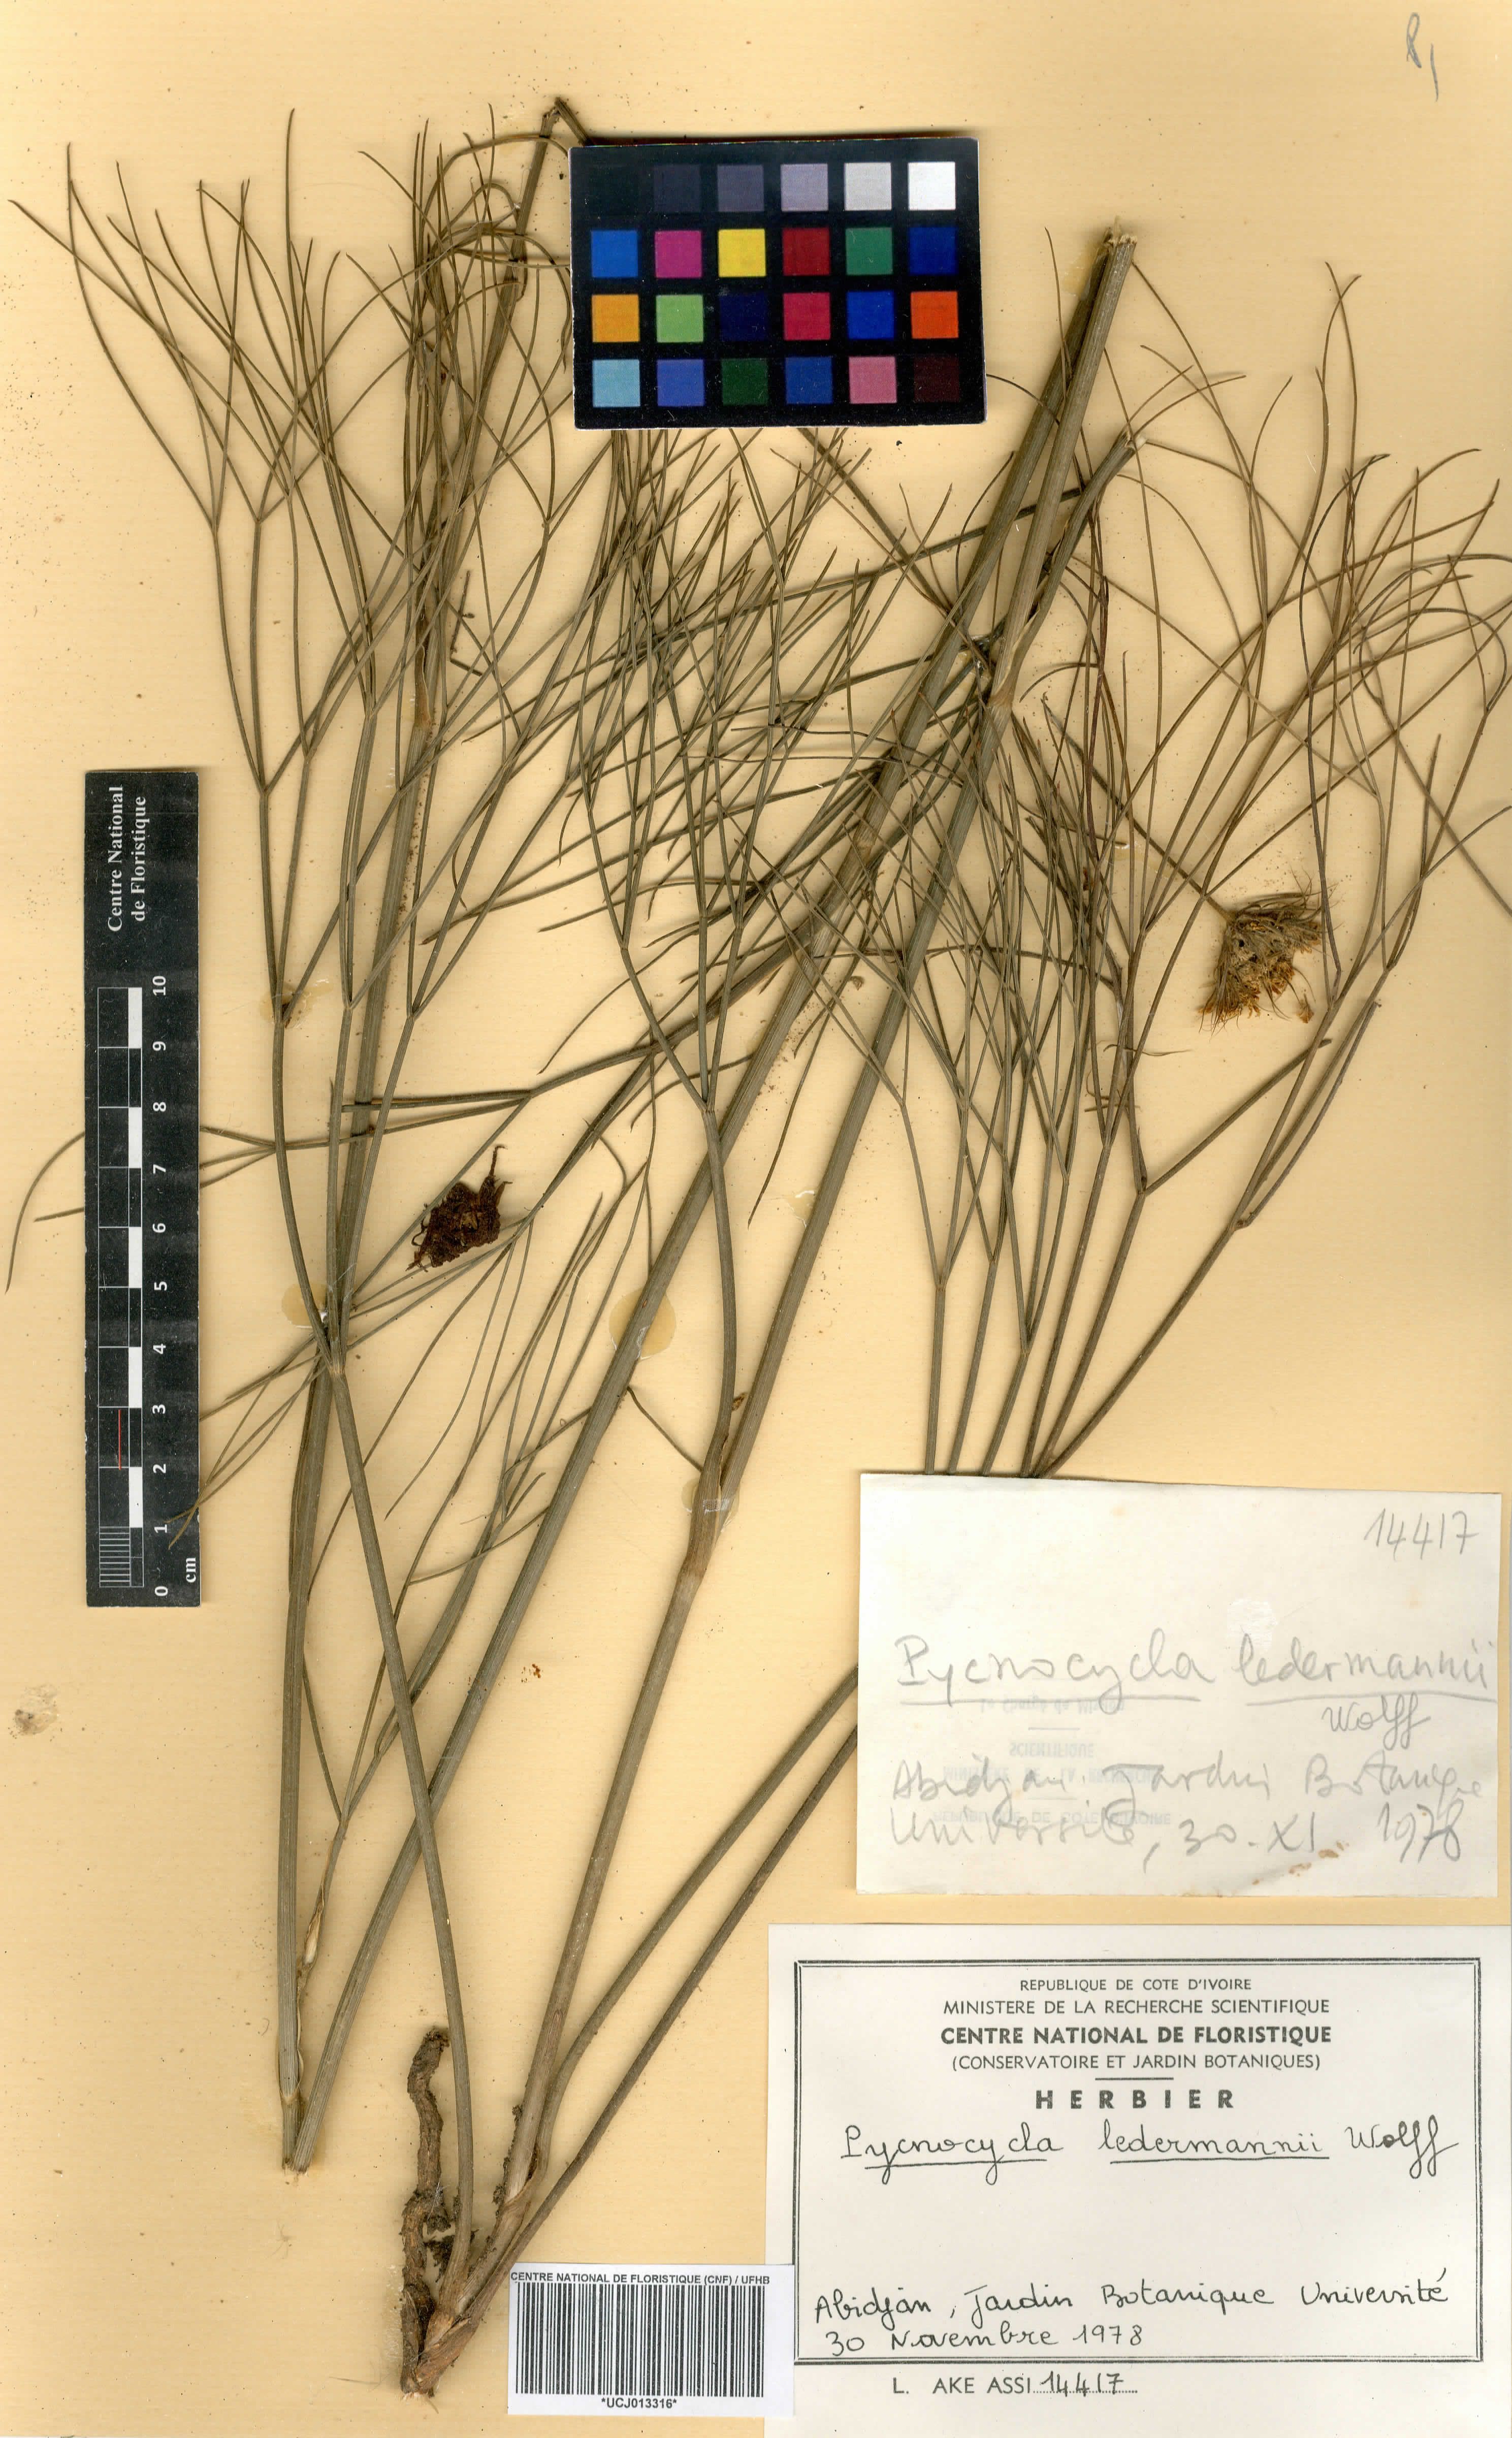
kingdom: Plantae
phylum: Tracheophyta
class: Magnoliopsida
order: Apiales
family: Apiaceae
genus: Pycnocycla
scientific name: Pycnocycla ledermannii
